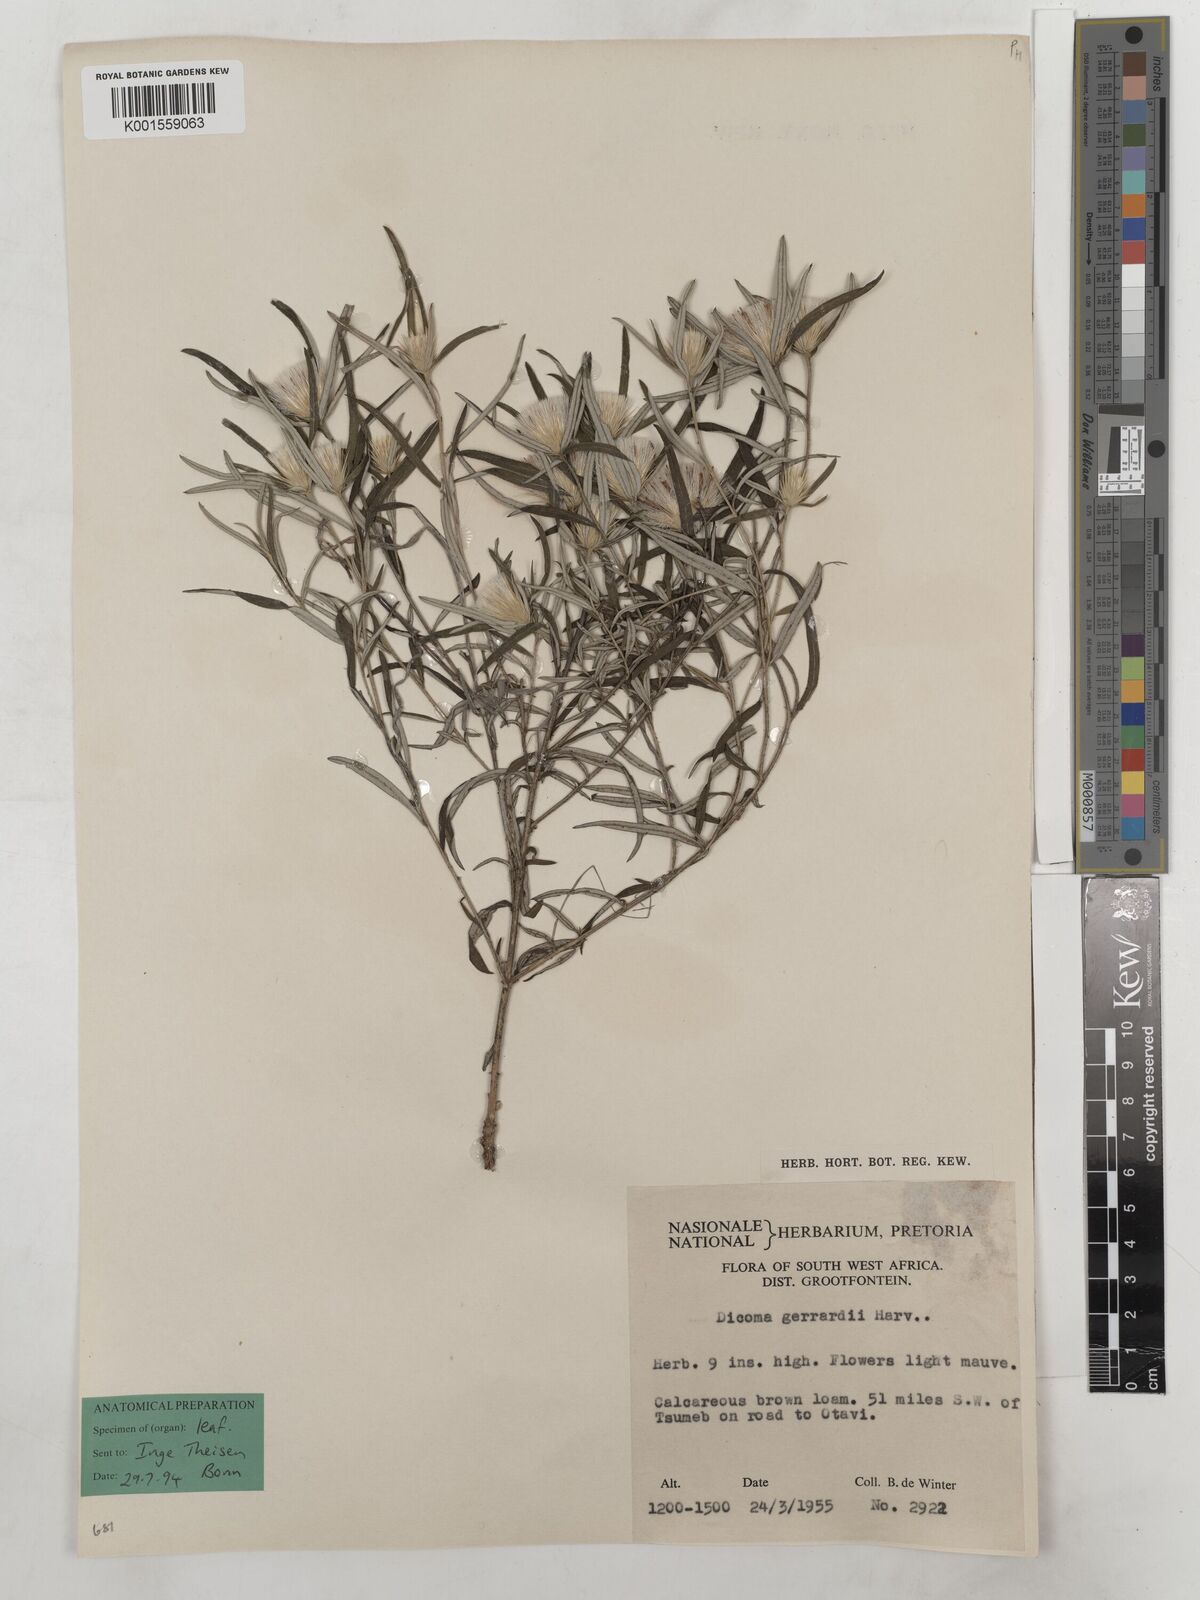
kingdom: Plantae
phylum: Tracheophyta
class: Magnoliopsida
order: Asterales
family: Asteraceae
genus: Dicoma
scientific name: Dicoma anomala
